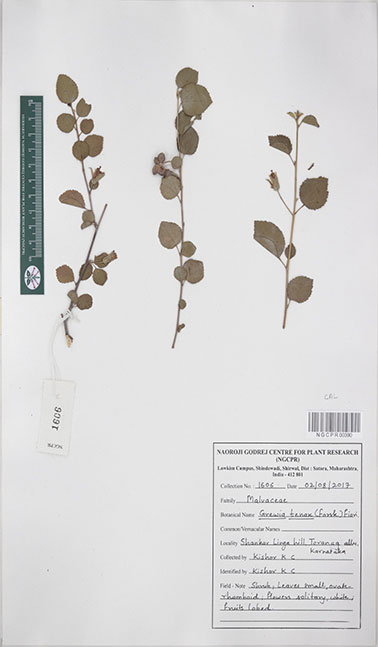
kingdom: Plantae
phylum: Tracheophyta
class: Magnoliopsida
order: Malvales
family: Malvaceae
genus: Grewia
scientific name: Grewia tenax
